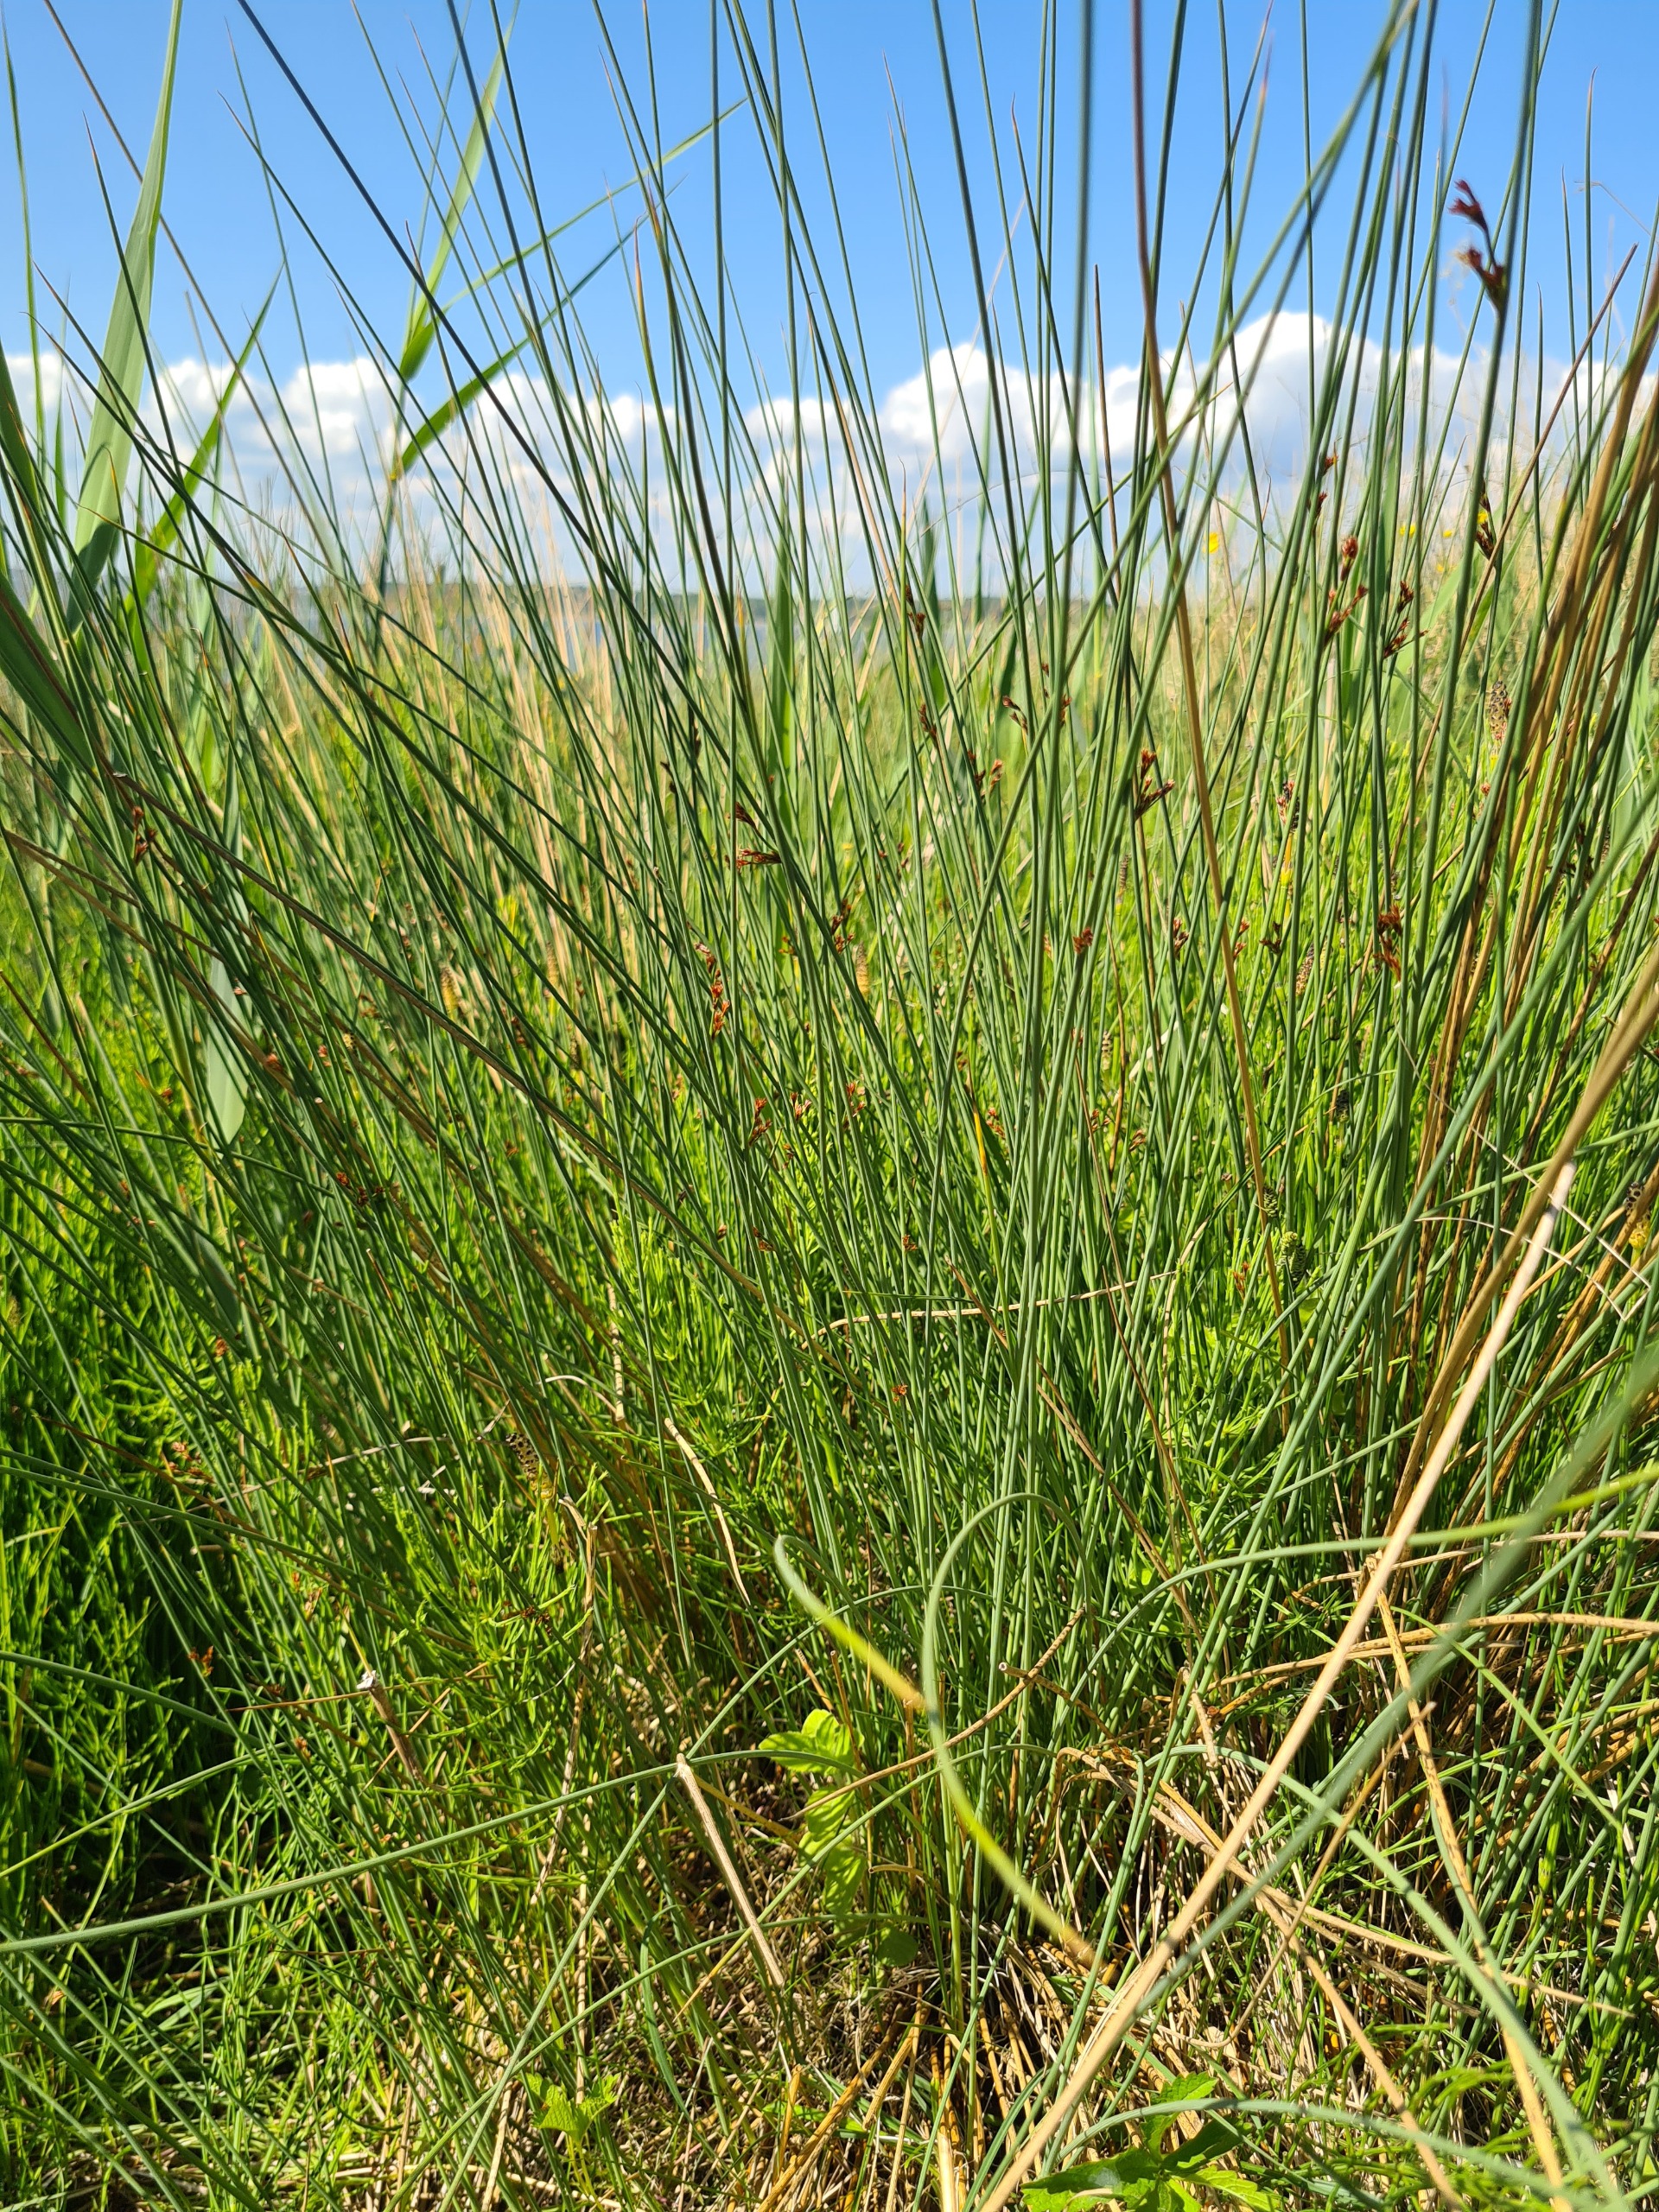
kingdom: Plantae
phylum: Tracheophyta
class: Liliopsida
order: Poales
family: Juncaceae
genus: Juncus
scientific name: Juncus inflexus
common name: Blågrå siv
